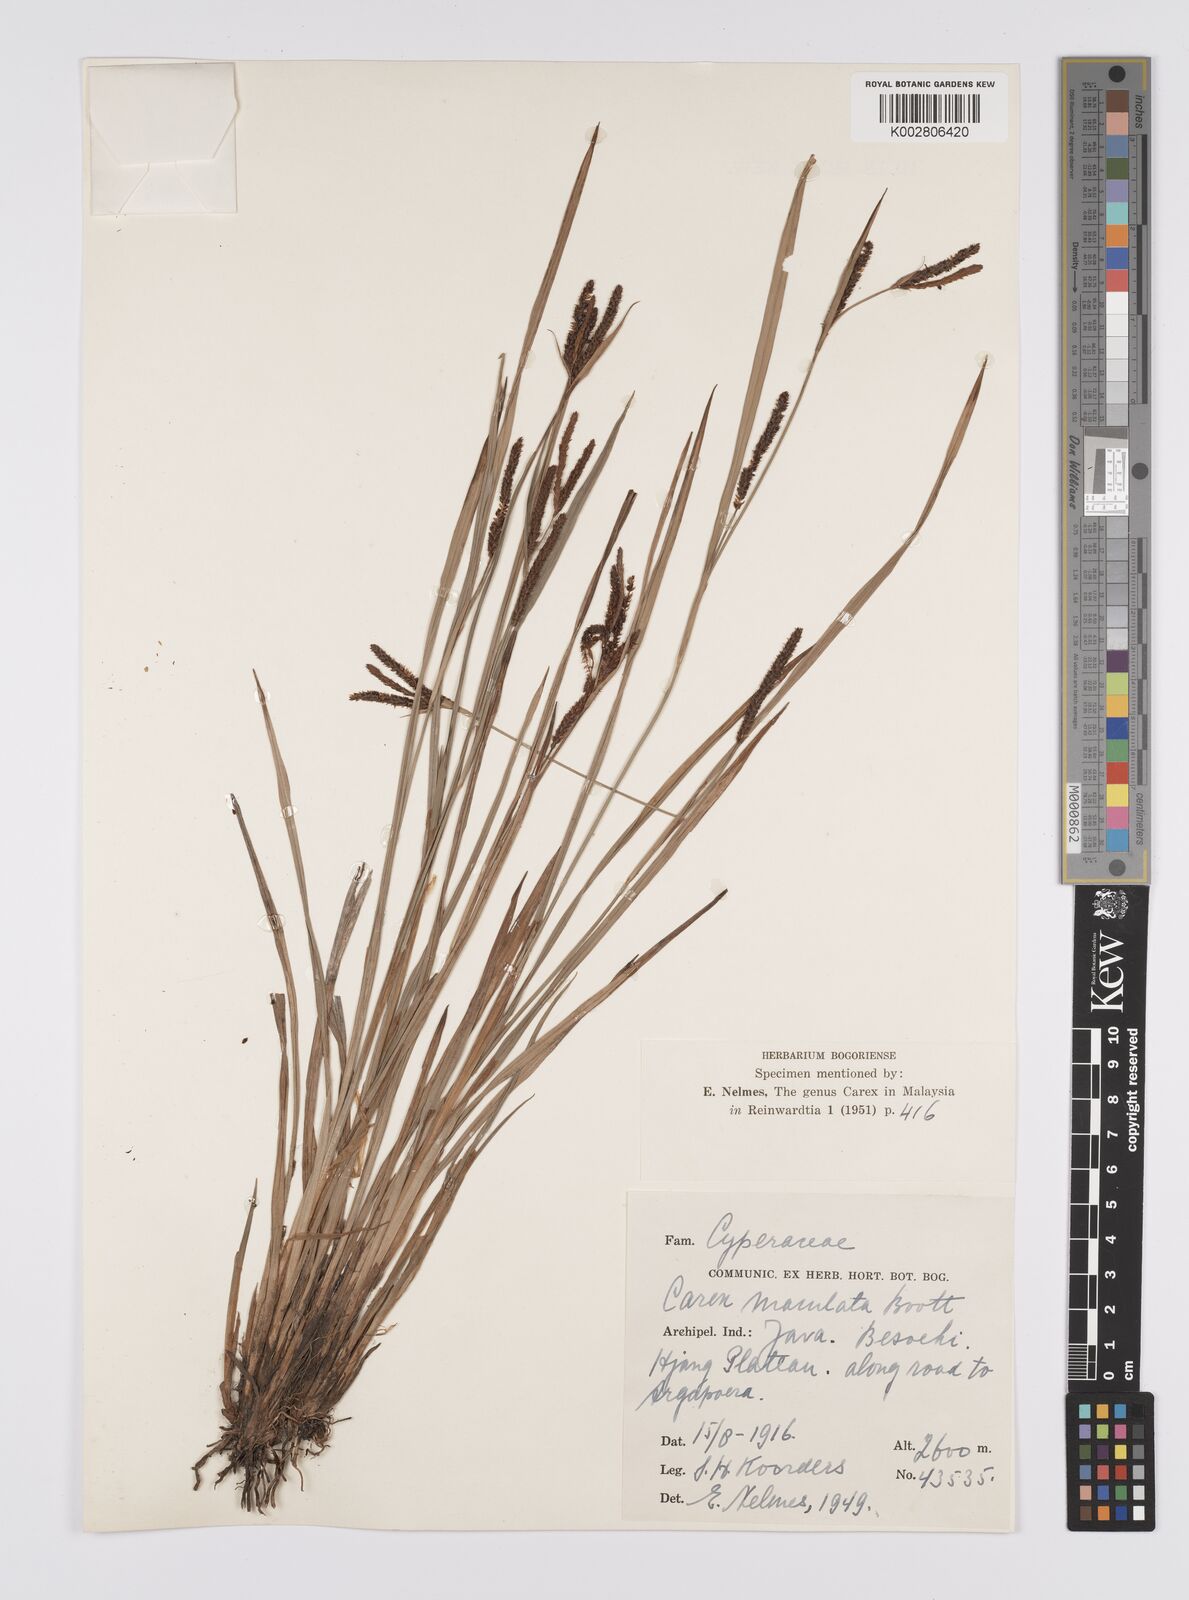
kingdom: Plantae
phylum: Tracheophyta
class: Liliopsida
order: Poales
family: Cyperaceae
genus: Carex
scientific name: Carex maculata
